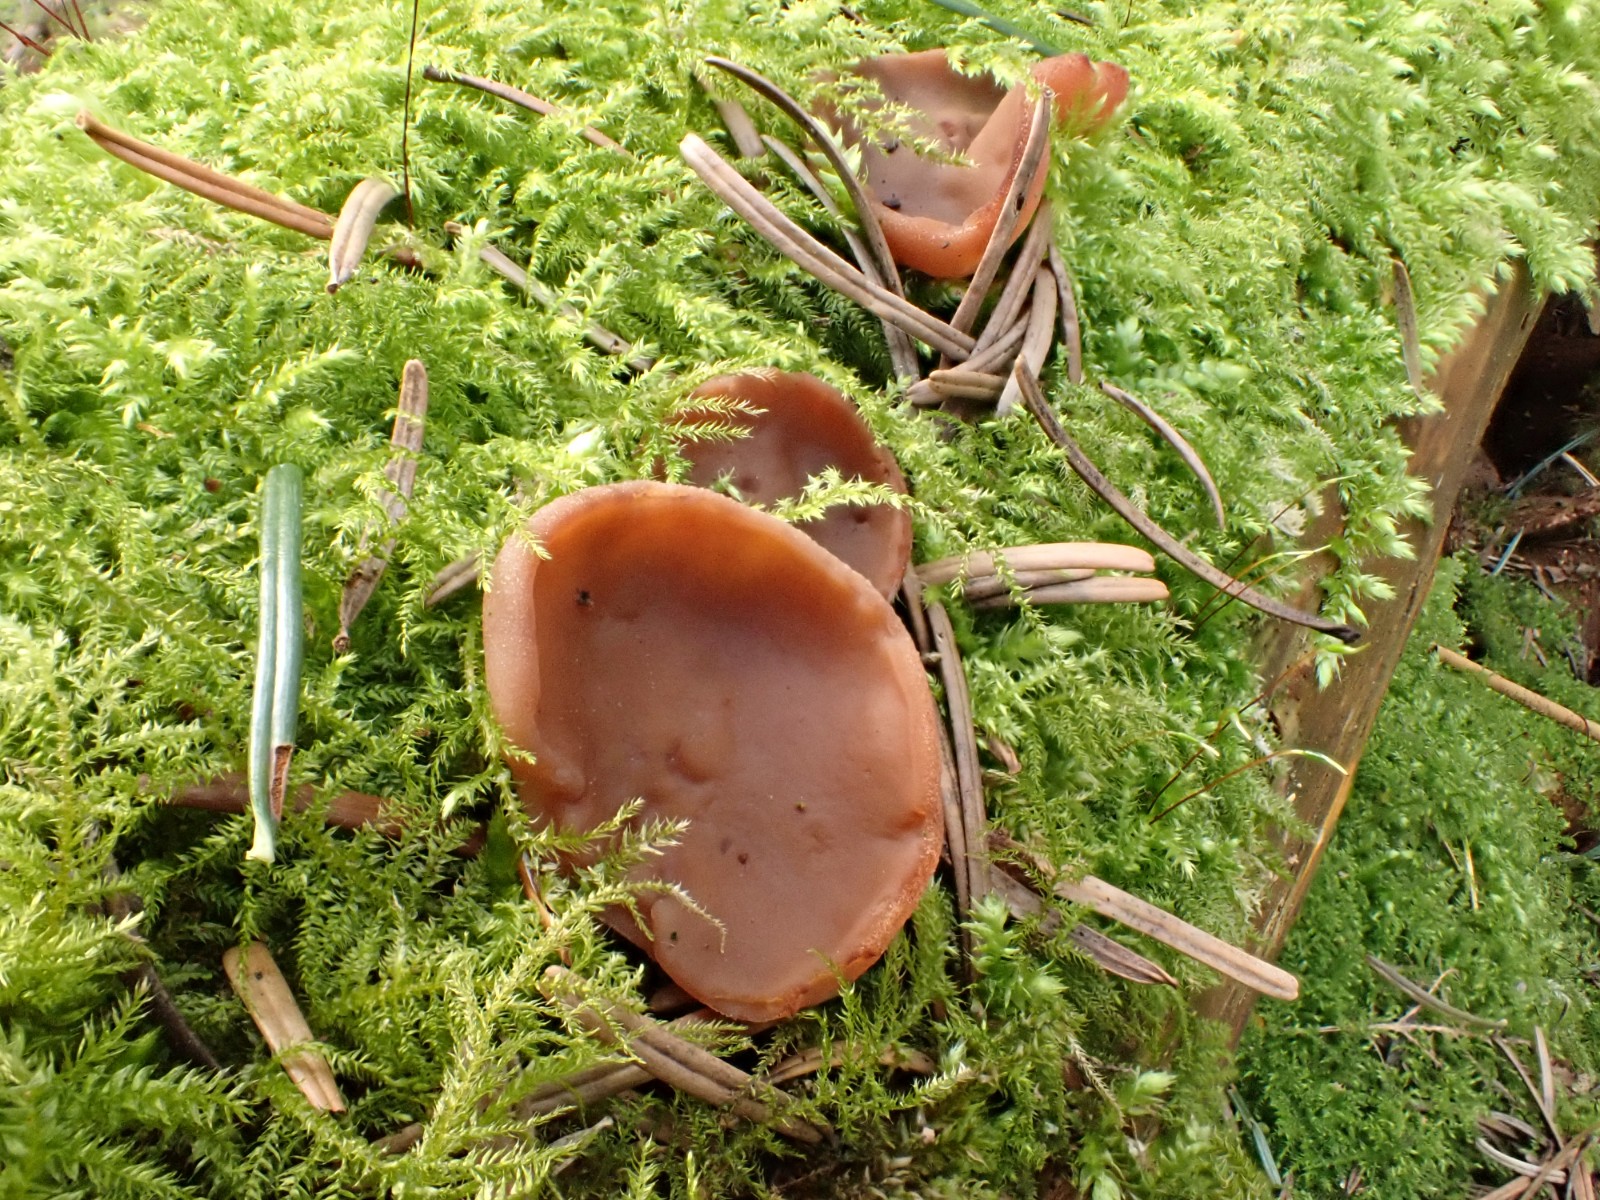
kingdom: Fungi
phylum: Ascomycota
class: Pezizomycetes
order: Pezizales
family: Discinaceae
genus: Discina
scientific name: Discina ancilis
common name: udbredt stenmorkel
